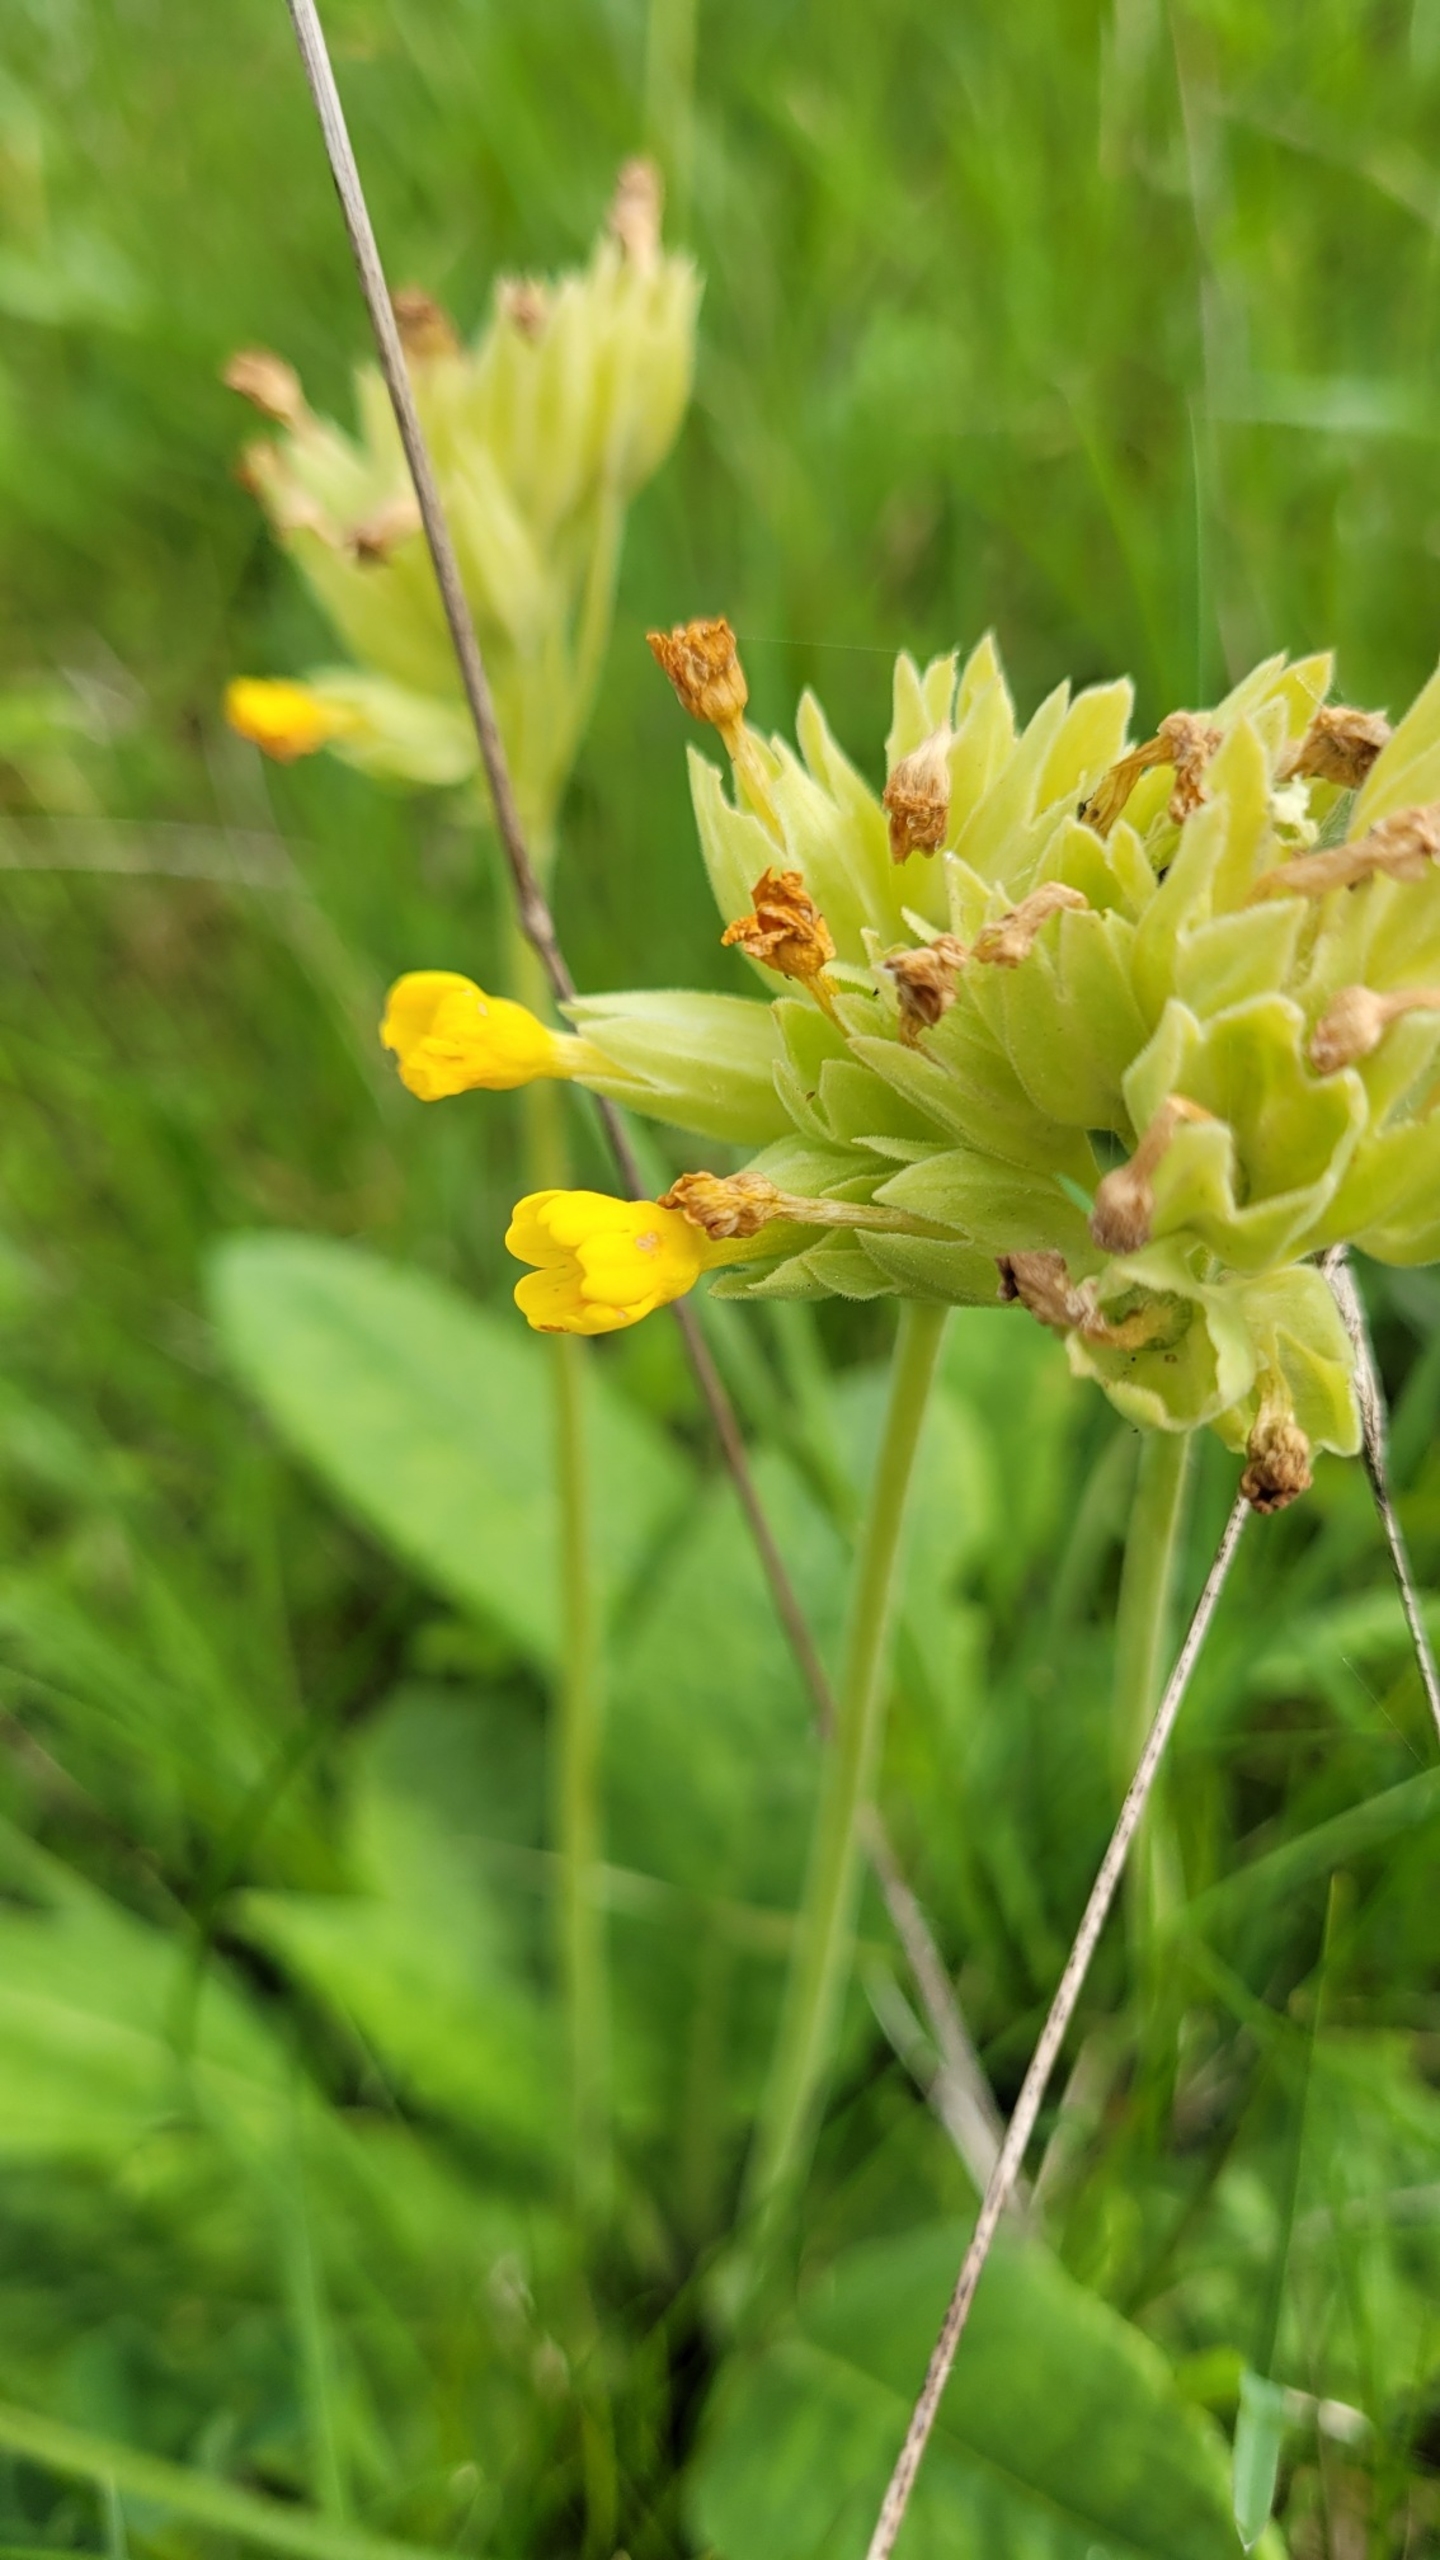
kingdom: Plantae
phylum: Tracheophyta
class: Magnoliopsida
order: Ericales
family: Primulaceae
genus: Primula
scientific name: Primula veris
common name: Hulkravet kodriver
